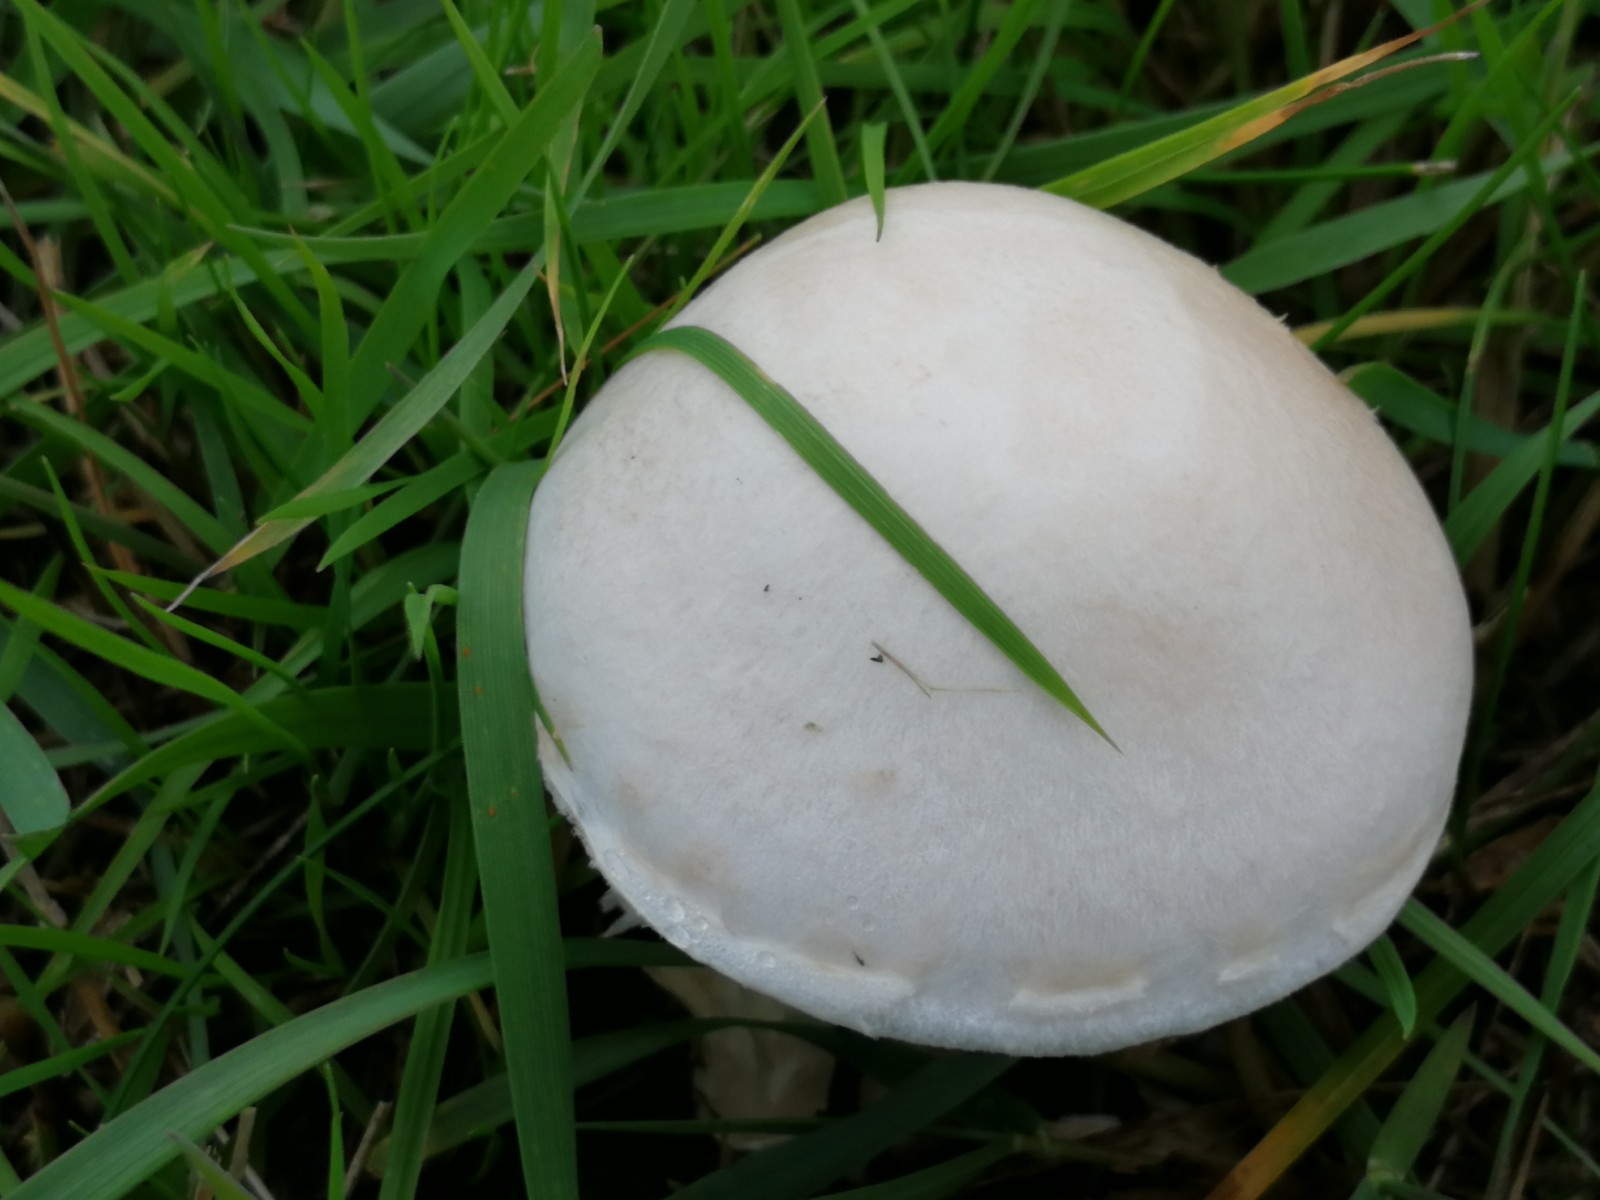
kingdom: Fungi
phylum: Basidiomycota
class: Agaricomycetes
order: Agaricales
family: Agaricaceae
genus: Agaricus
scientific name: Agaricus campestris
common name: mark-champignon
